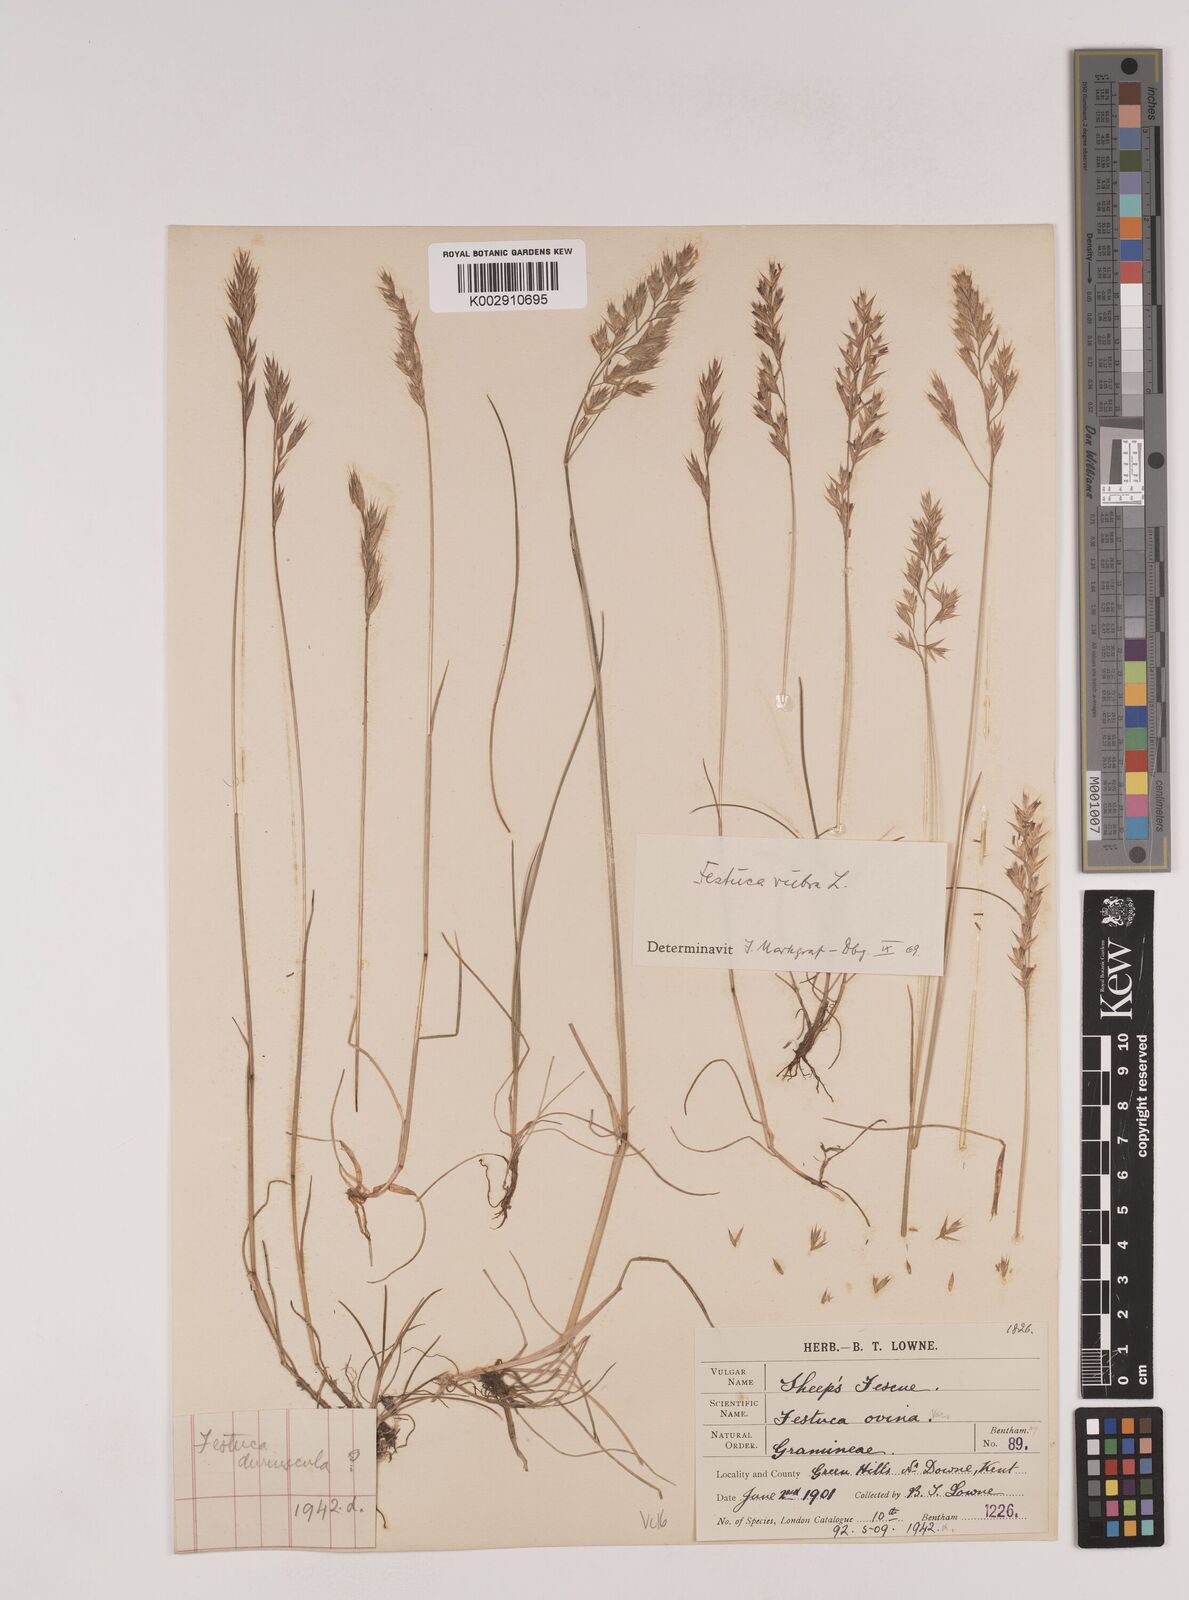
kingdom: Plantae
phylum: Tracheophyta
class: Liliopsida
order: Poales
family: Poaceae
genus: Festuca
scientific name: Festuca rubra
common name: Red fescue
